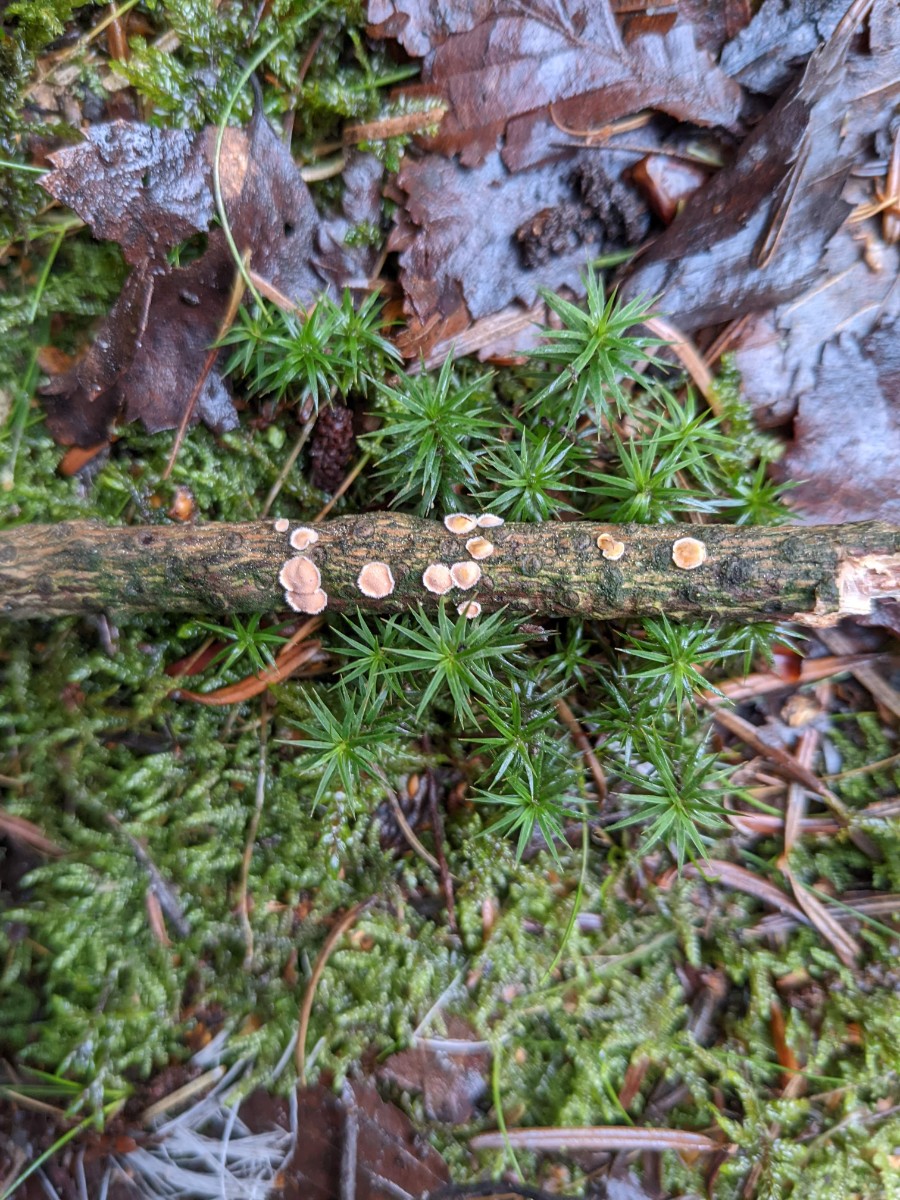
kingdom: Fungi
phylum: Basidiomycota
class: Agaricomycetes
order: Russulales
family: Stereaceae
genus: Aleurodiscus
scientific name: Aleurodiscus amorphus
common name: orange skiveskorpe
